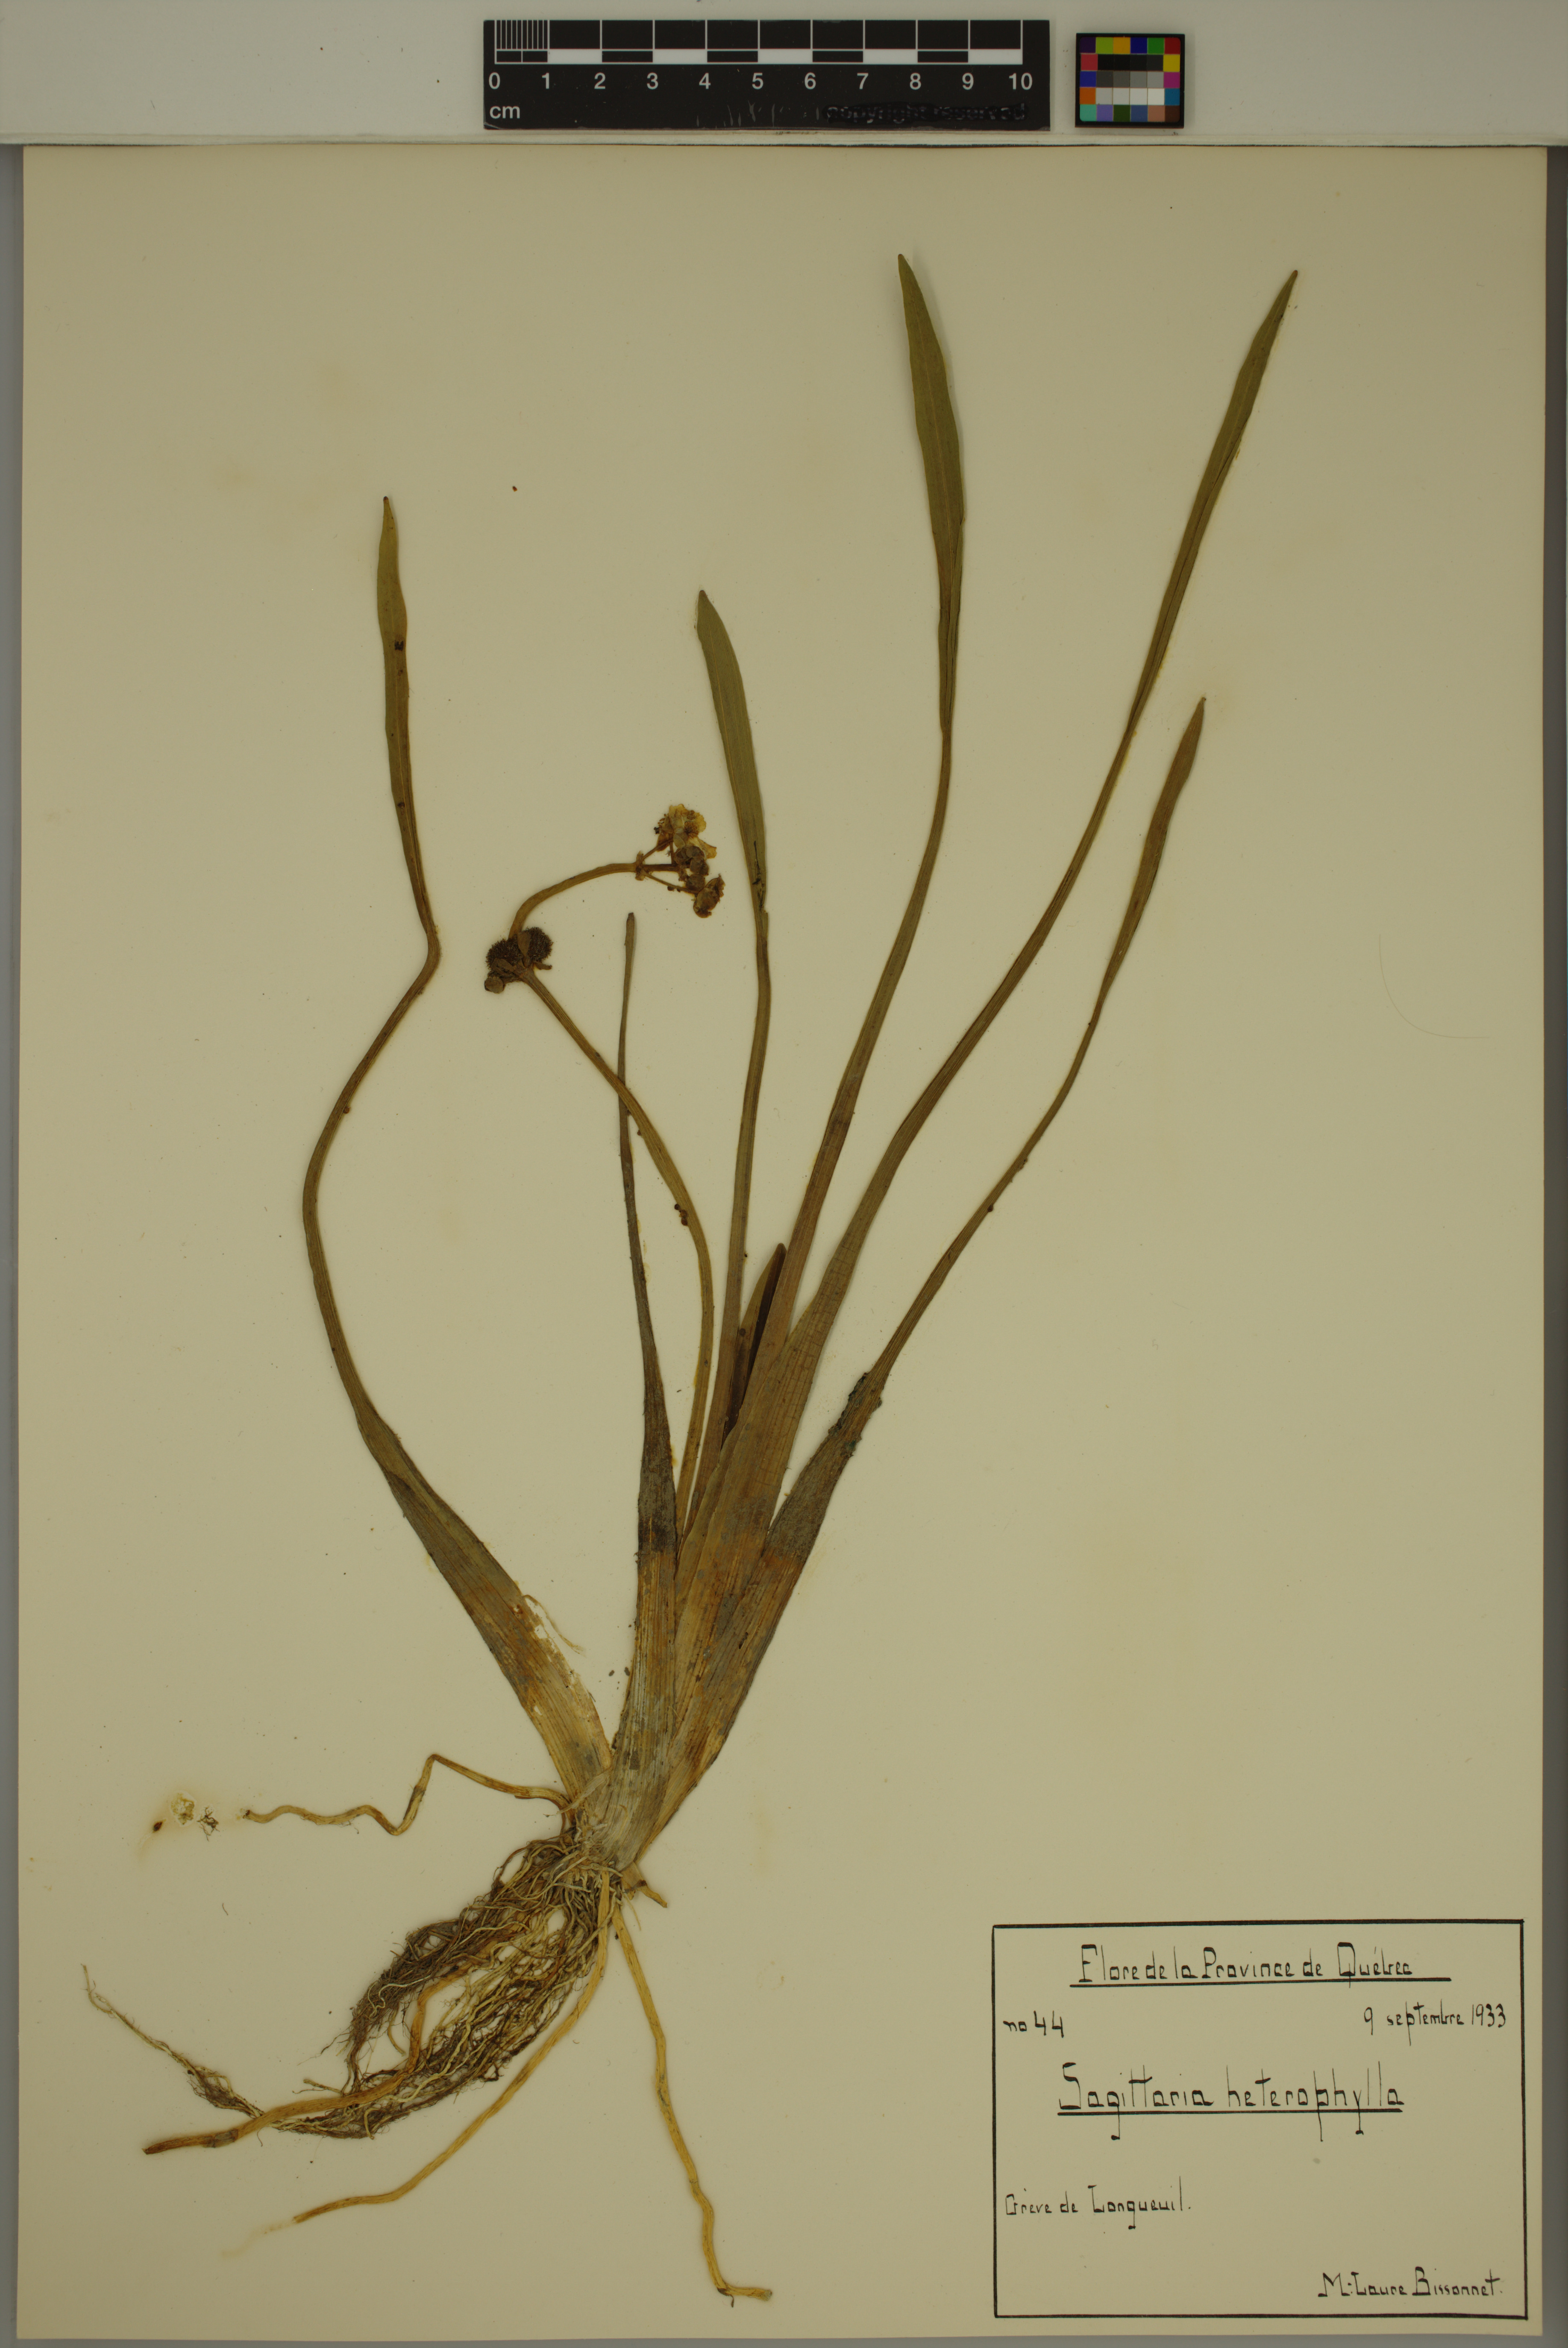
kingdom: Plantae
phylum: Tracheophyta
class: Liliopsida
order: Alismatales
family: Alismataceae
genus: Sagittaria
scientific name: Sagittaria rigida
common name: Canadian arrowhead
